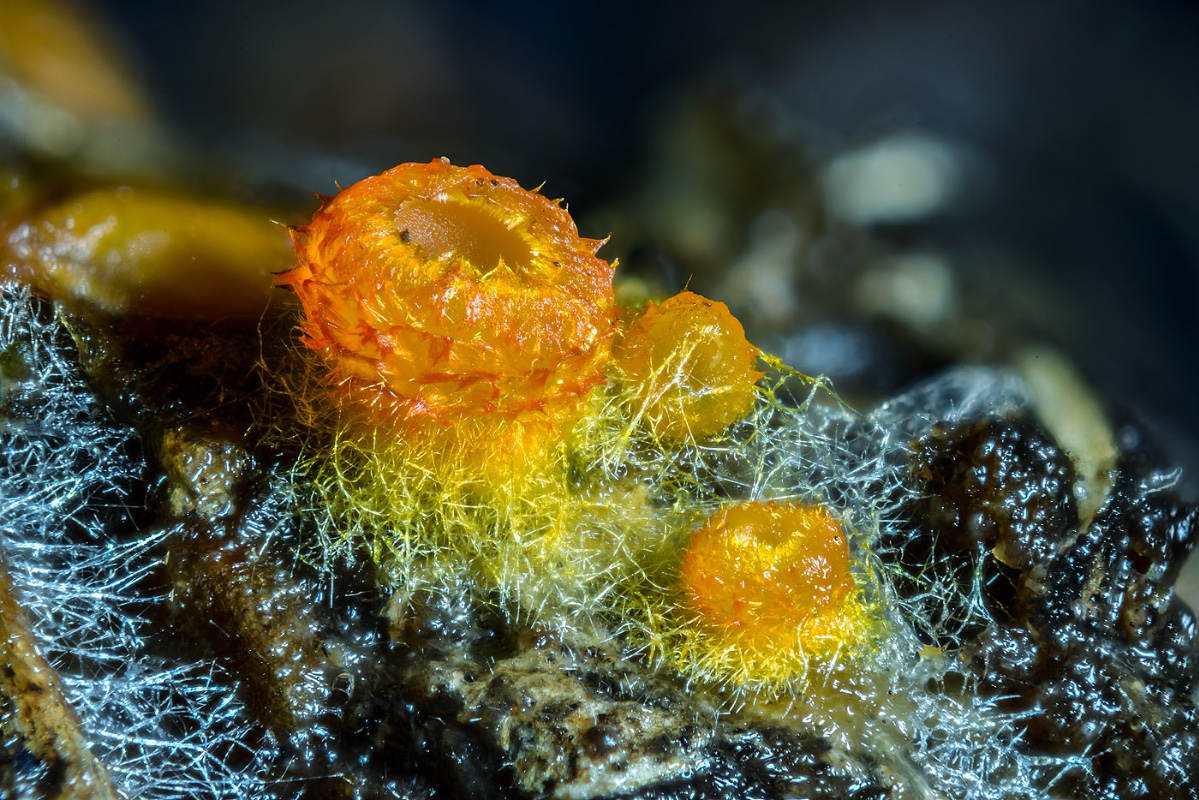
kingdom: Fungi
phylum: Ascomycota
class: Leotiomycetes
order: Helotiales
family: Arachnopezizaceae
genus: Arachnopeziza
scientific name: Arachnopeziza aurelia
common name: flamme-spindskive
